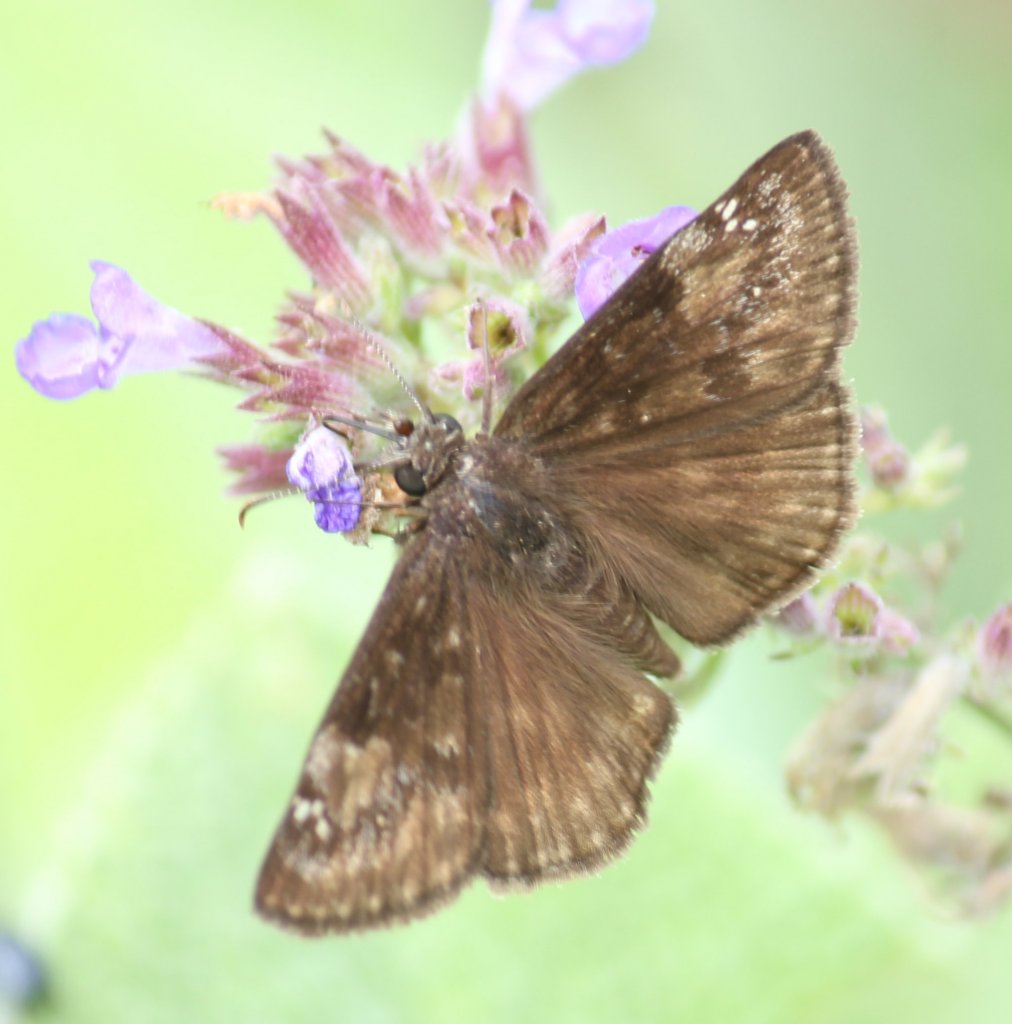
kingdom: Animalia
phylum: Arthropoda
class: Insecta
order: Lepidoptera
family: Hesperiidae
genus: Gesta
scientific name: Gesta
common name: Wild Indigo Duskywing
